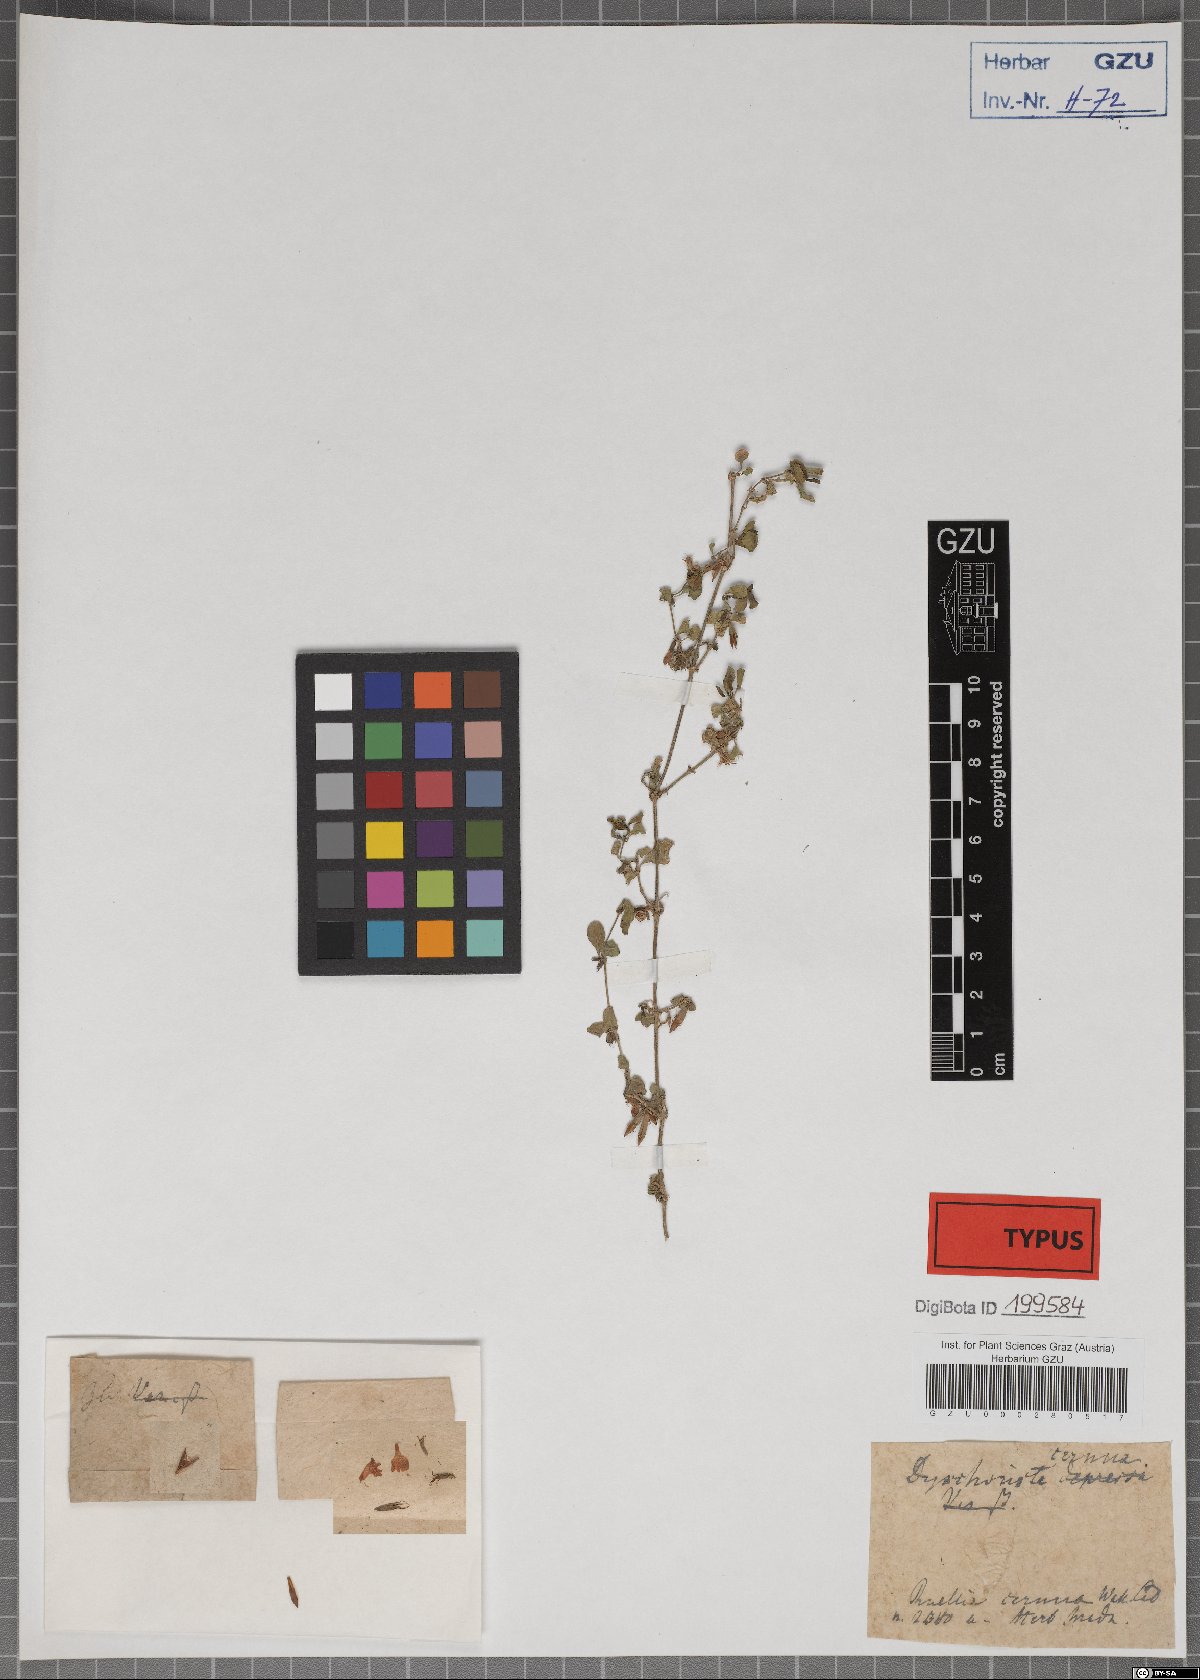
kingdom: Plantae
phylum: Tracheophyta
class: Magnoliopsida
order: Lamiales
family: Acanthaceae
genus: Hygrophila
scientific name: Hygrophila erecta
